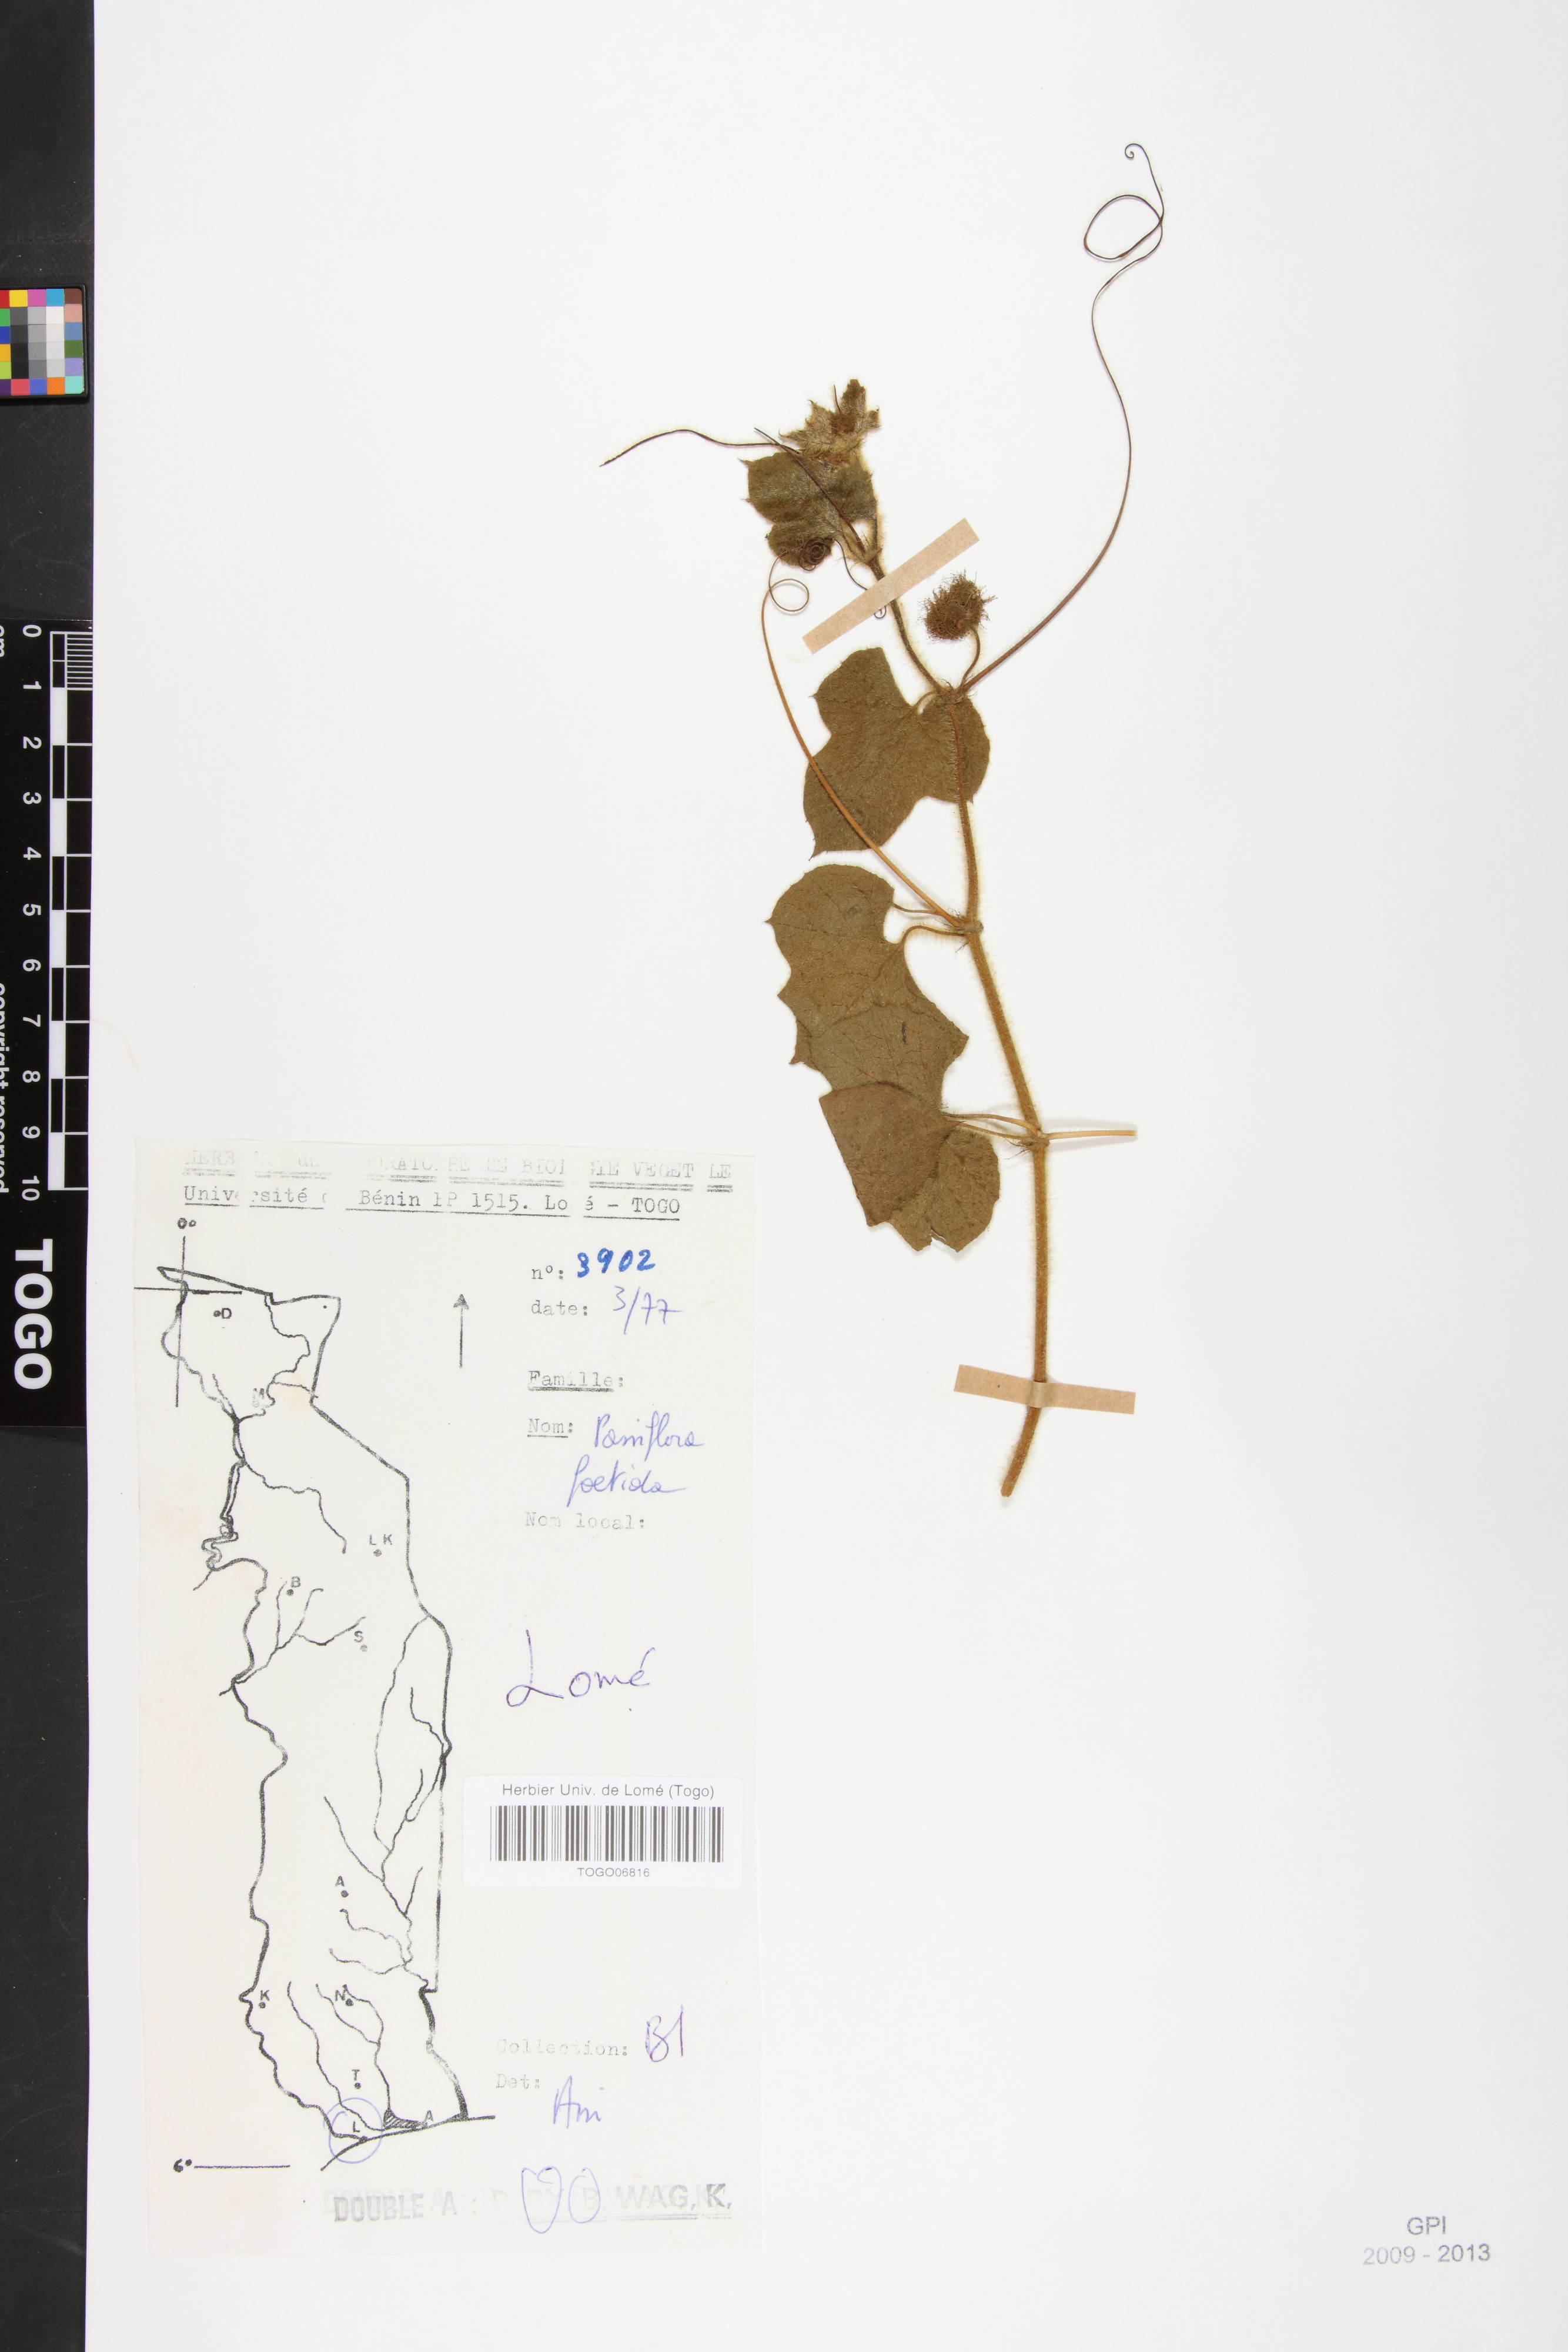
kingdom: Plantae
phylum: Tracheophyta
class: Magnoliopsida
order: Malpighiales
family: Passifloraceae
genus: Passiflora
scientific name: Passiflora foetida
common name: Fetid passionflower
